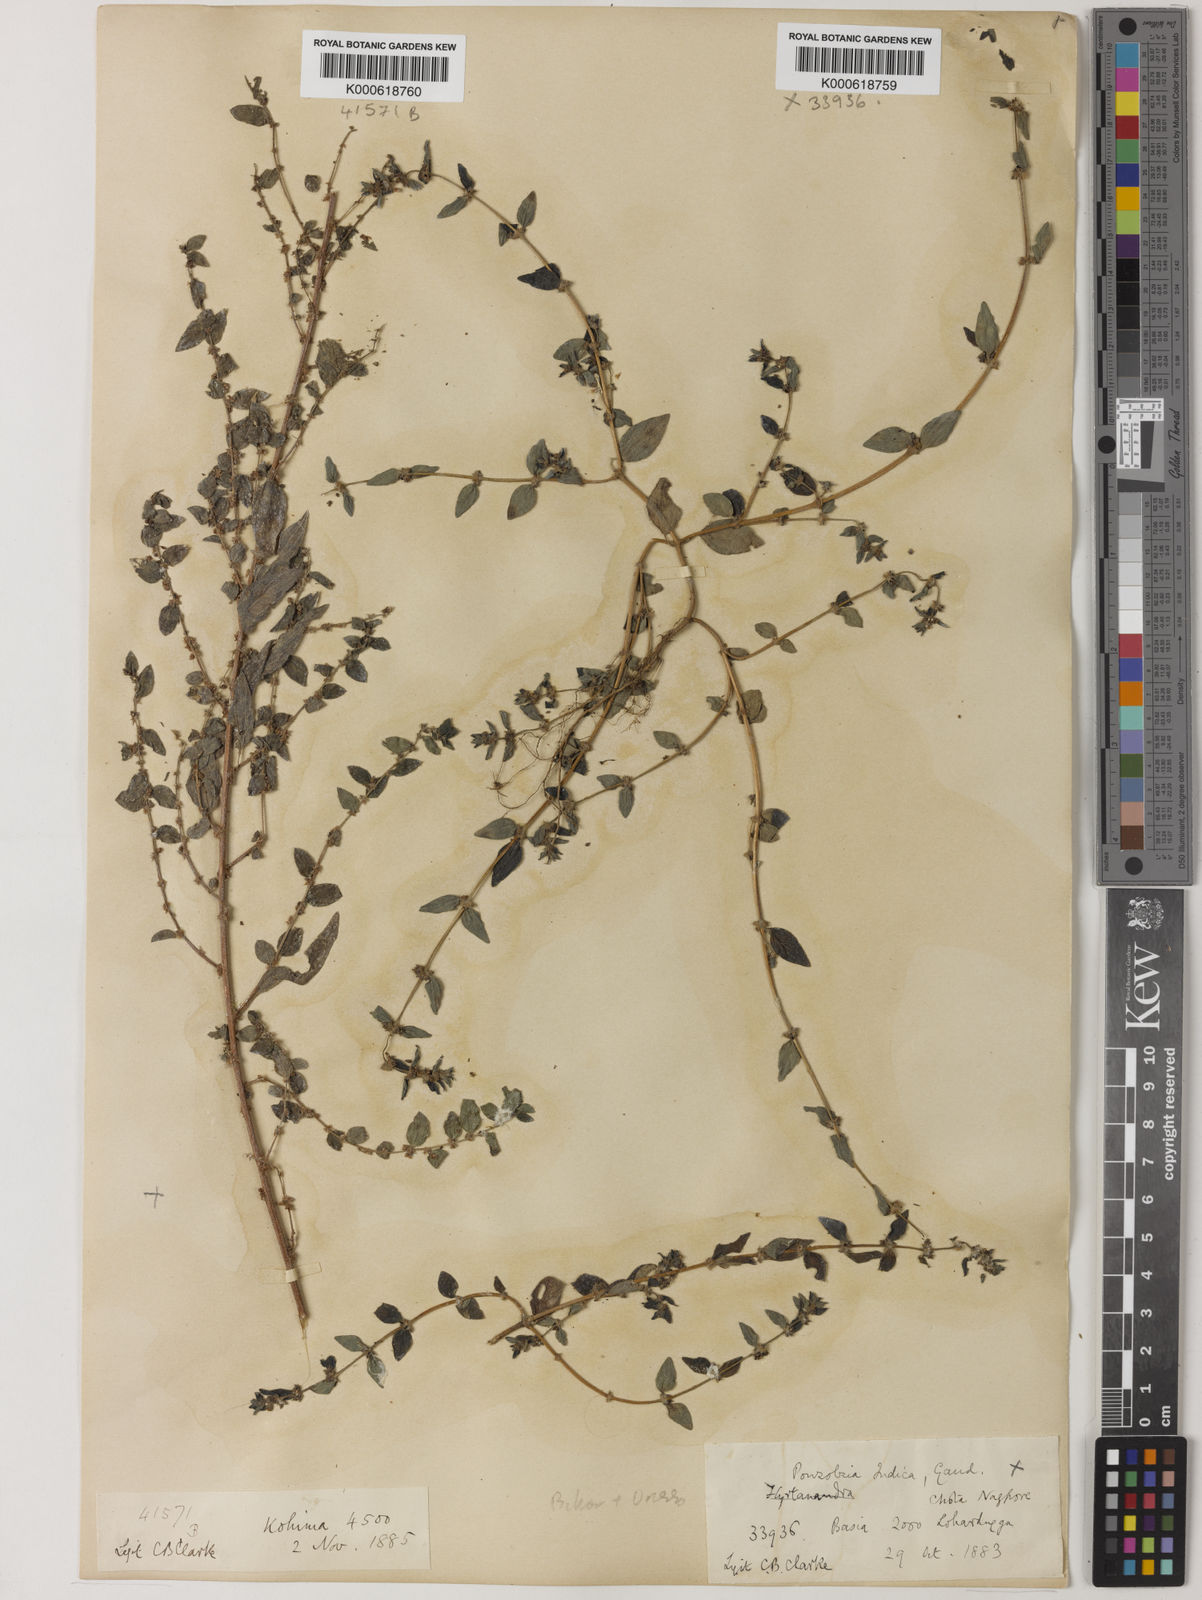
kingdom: Plantae
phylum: Tracheophyta
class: Magnoliopsida
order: Rosales
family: Urticaceae
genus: Pouzolzia
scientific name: Pouzolzia zeylanica
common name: Graceful pouzolzsbush
